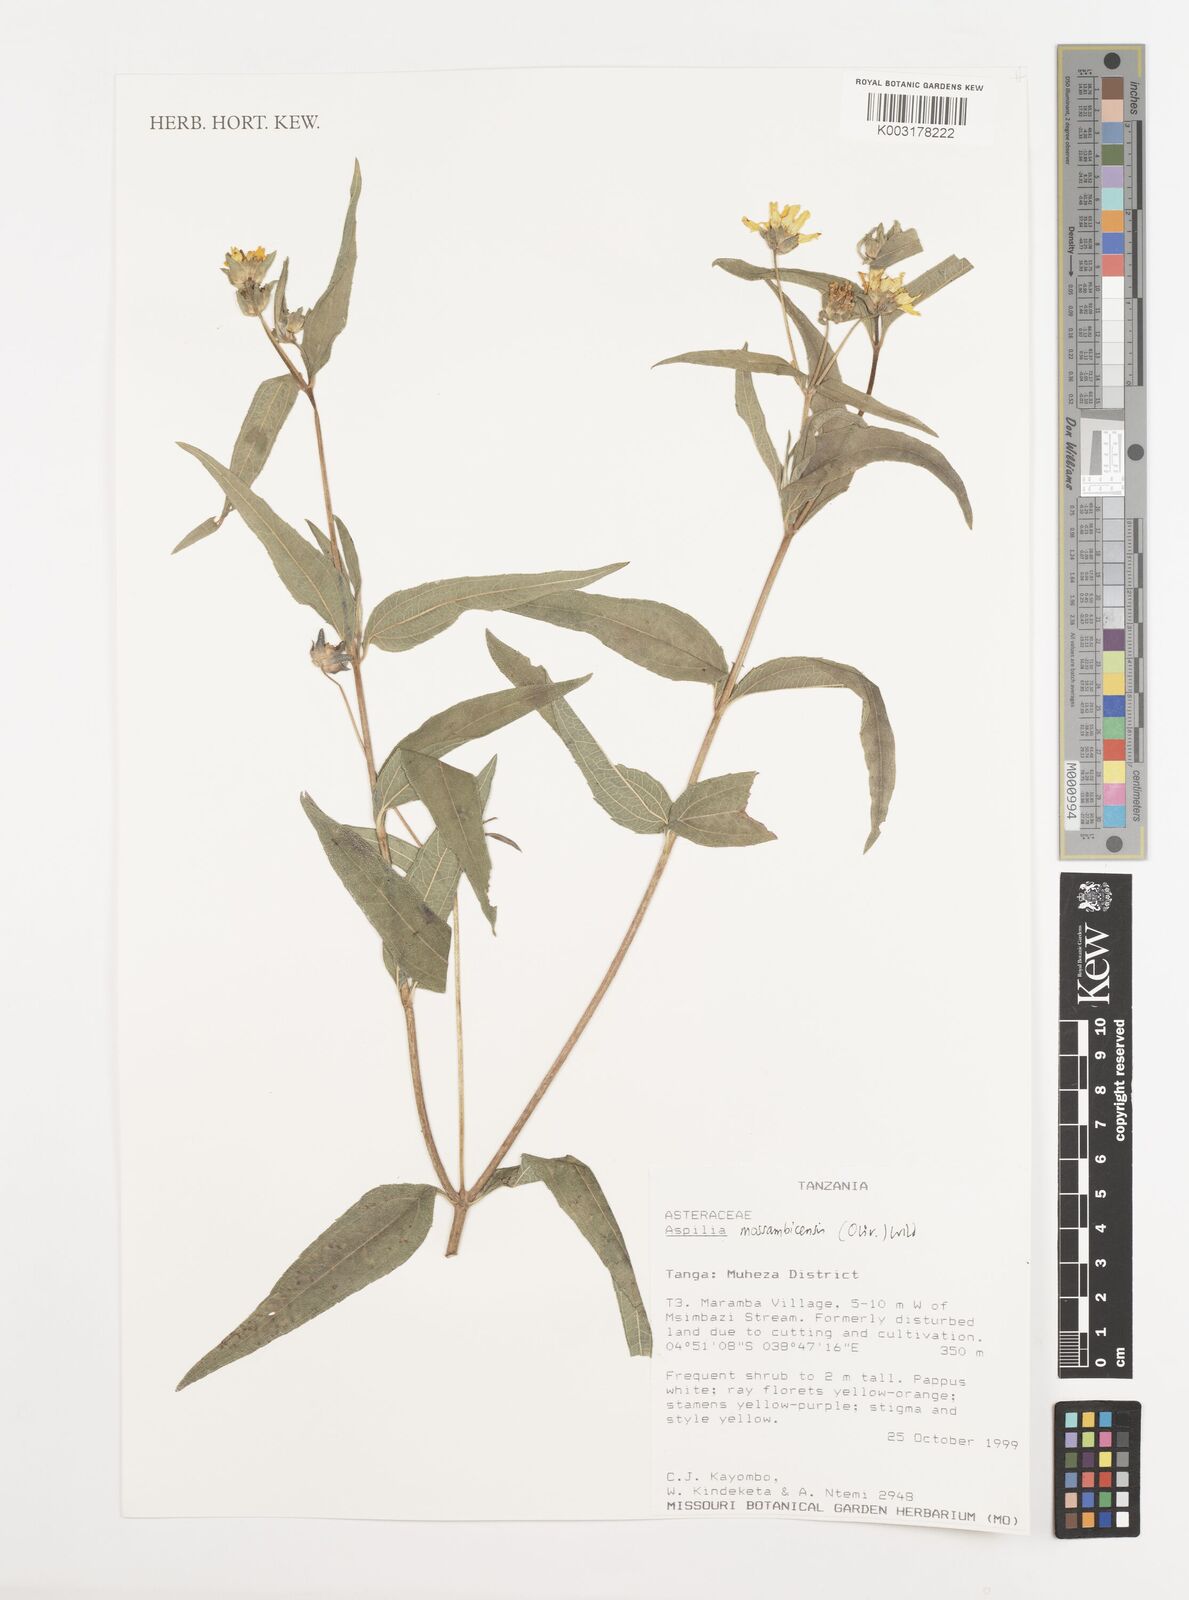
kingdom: Plantae
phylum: Tracheophyta
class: Magnoliopsida
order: Asterales
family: Asteraceae
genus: Aspilia
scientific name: Aspilia mossambicensis
